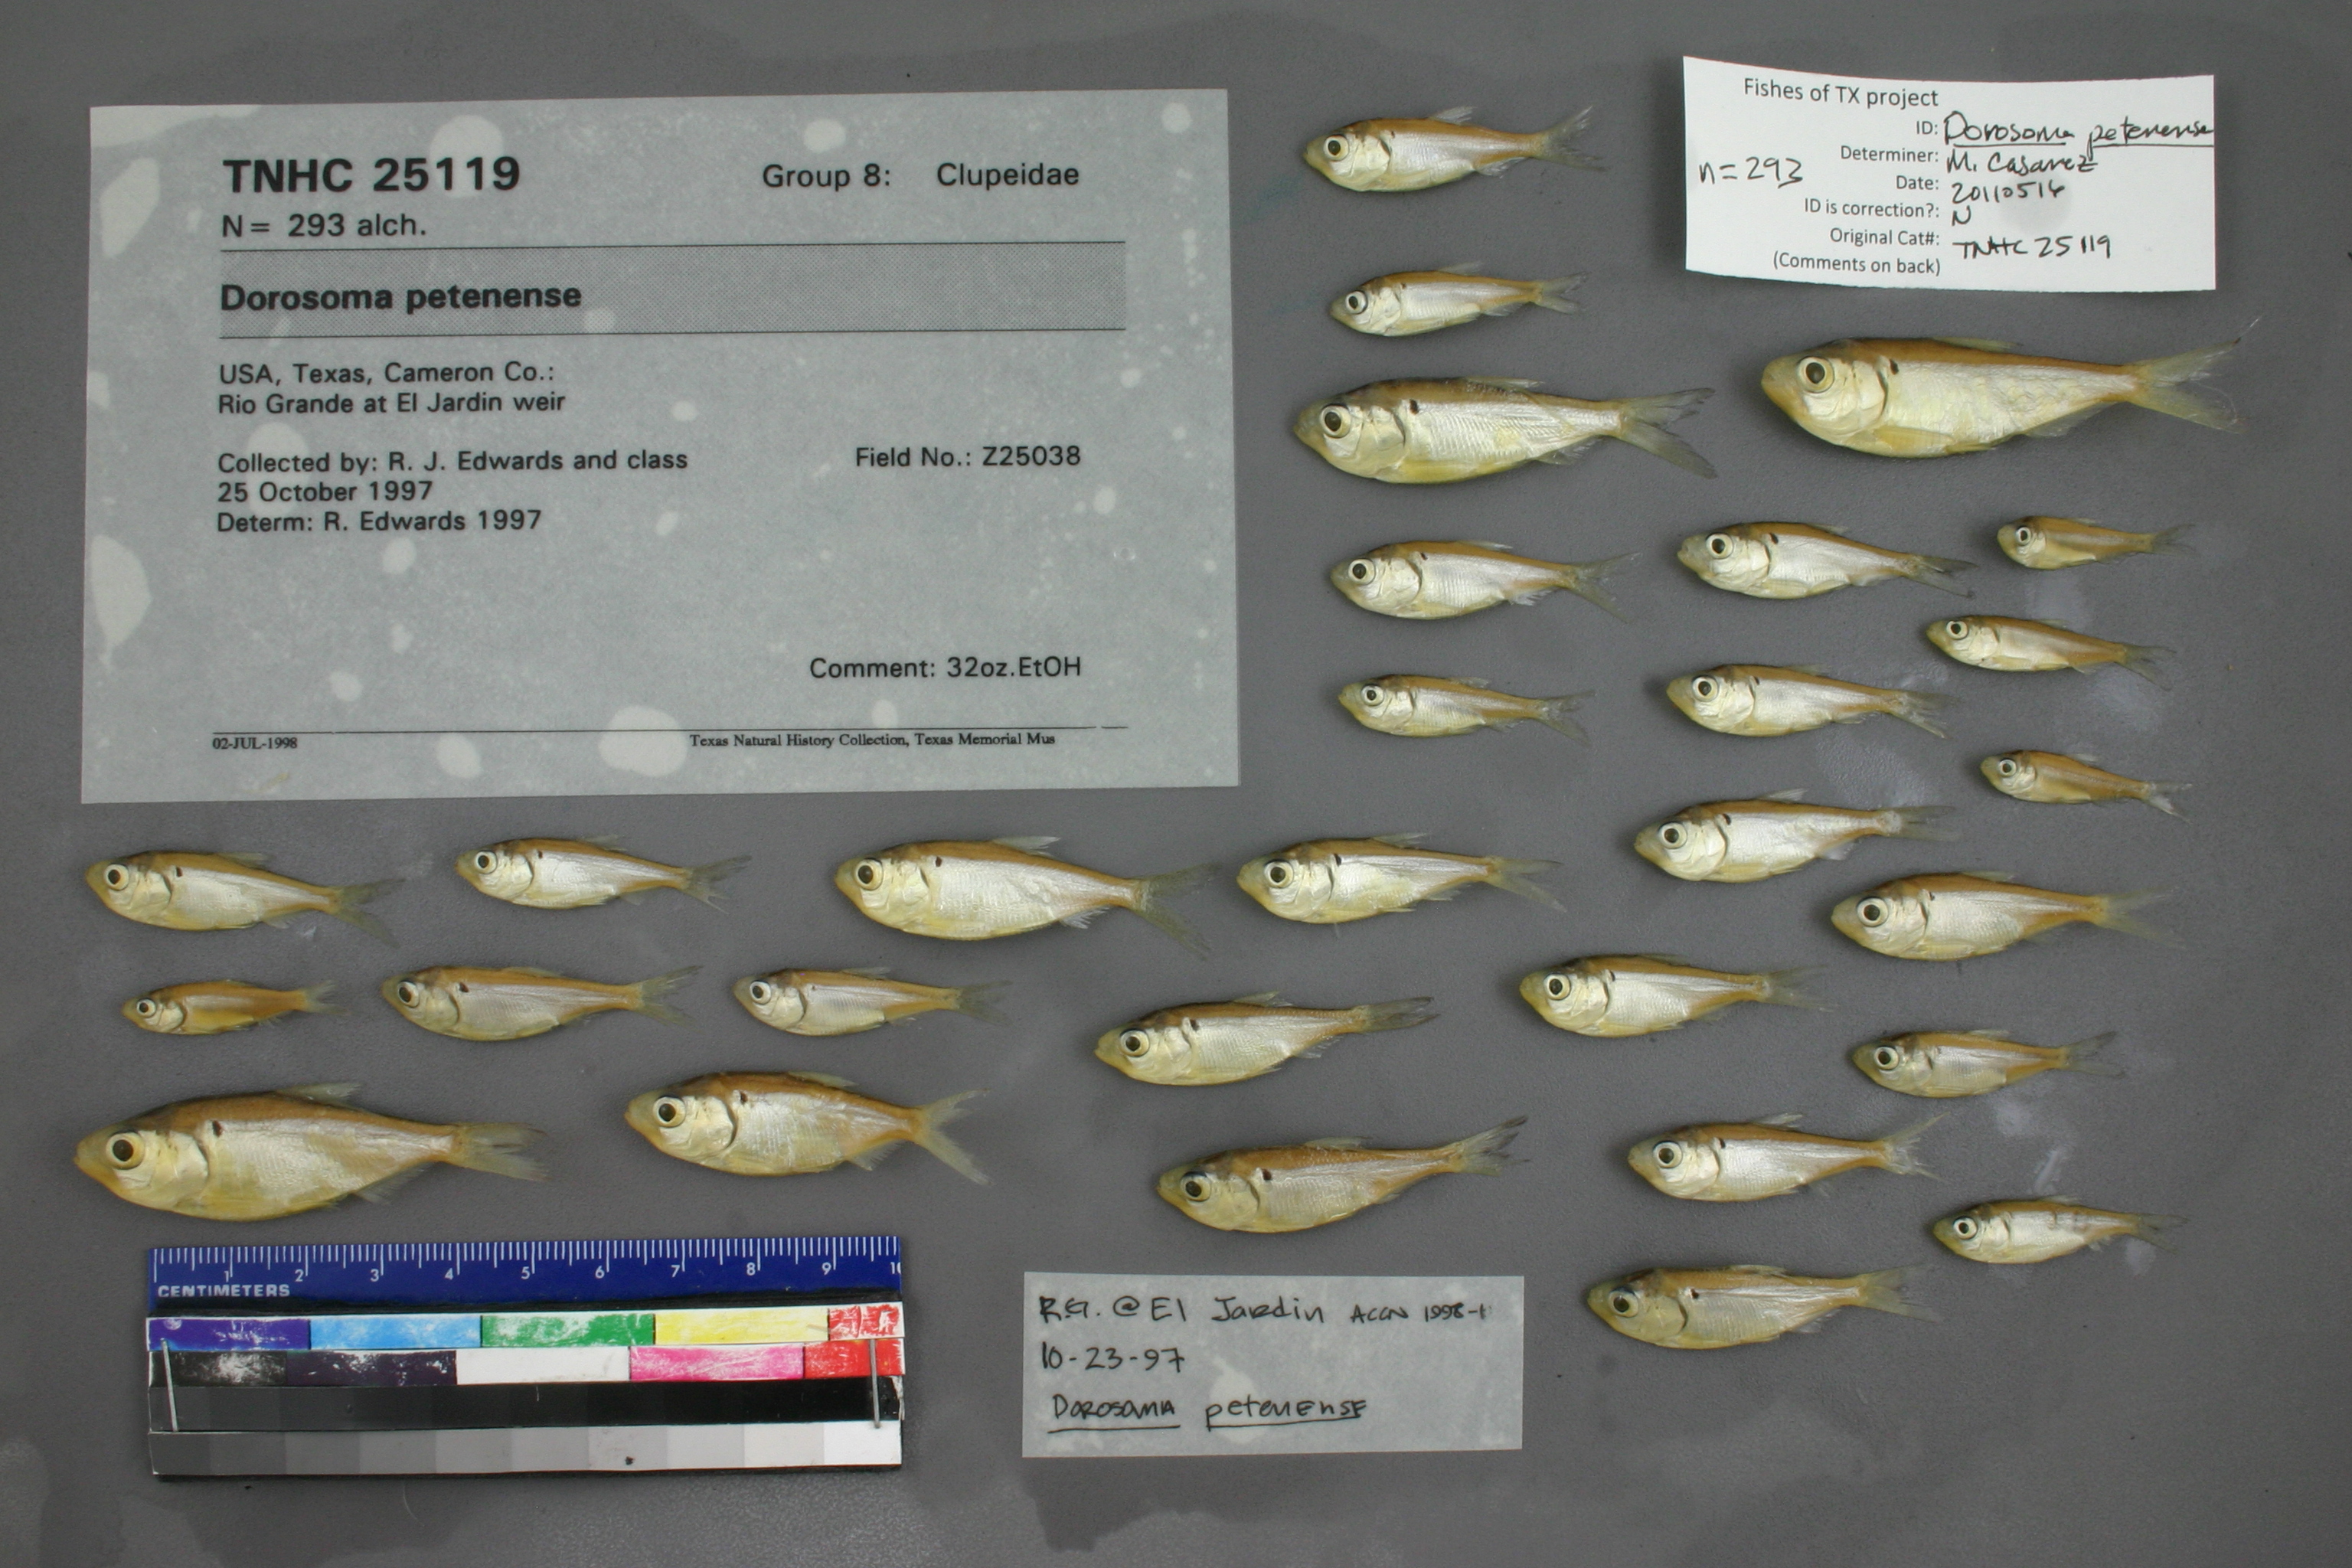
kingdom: Animalia
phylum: Chordata
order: Clupeiformes
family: Clupeidae
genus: Dorosoma
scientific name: Dorosoma petenense
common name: Threadfin shad
